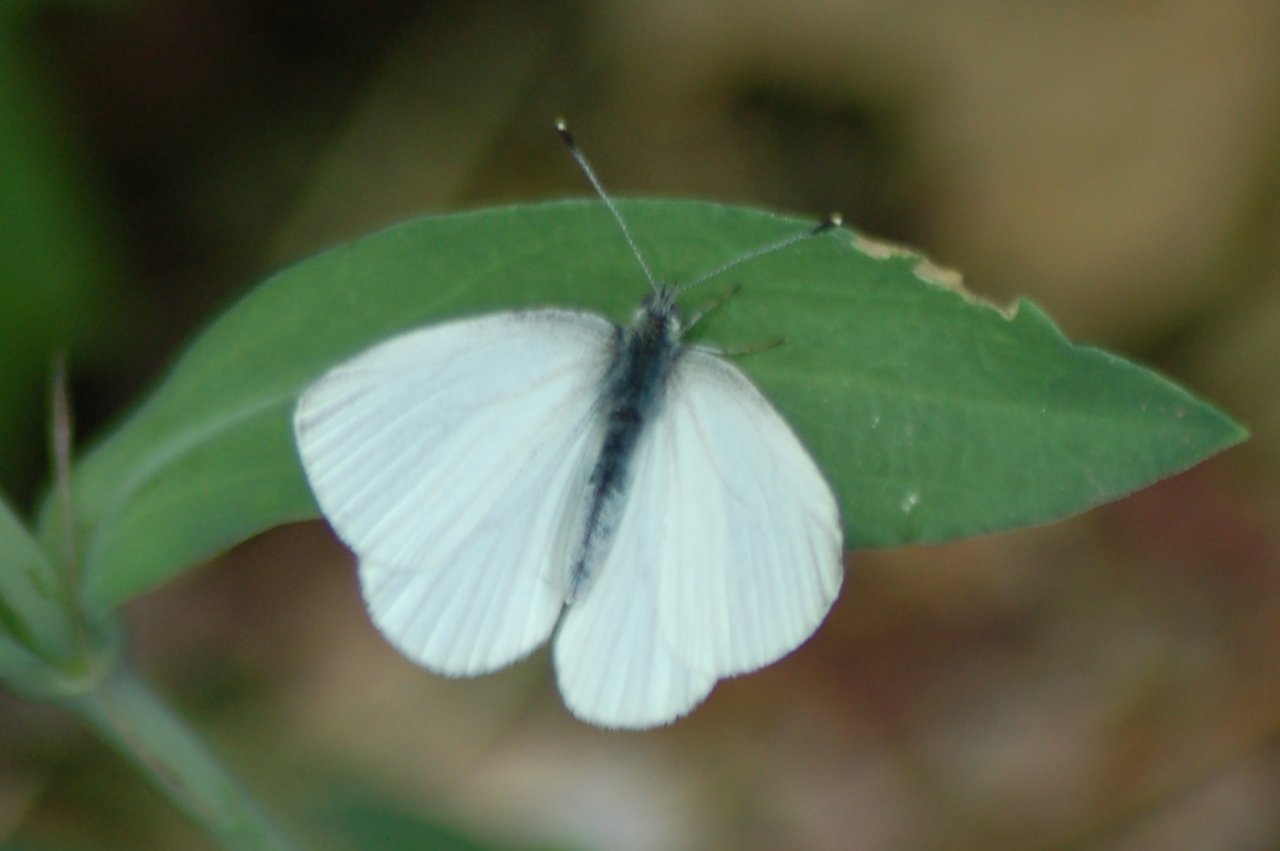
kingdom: Animalia
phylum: Arthropoda
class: Insecta
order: Lepidoptera
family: Pieridae
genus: Pieris
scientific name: Pieris oleracea
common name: Mustard White
